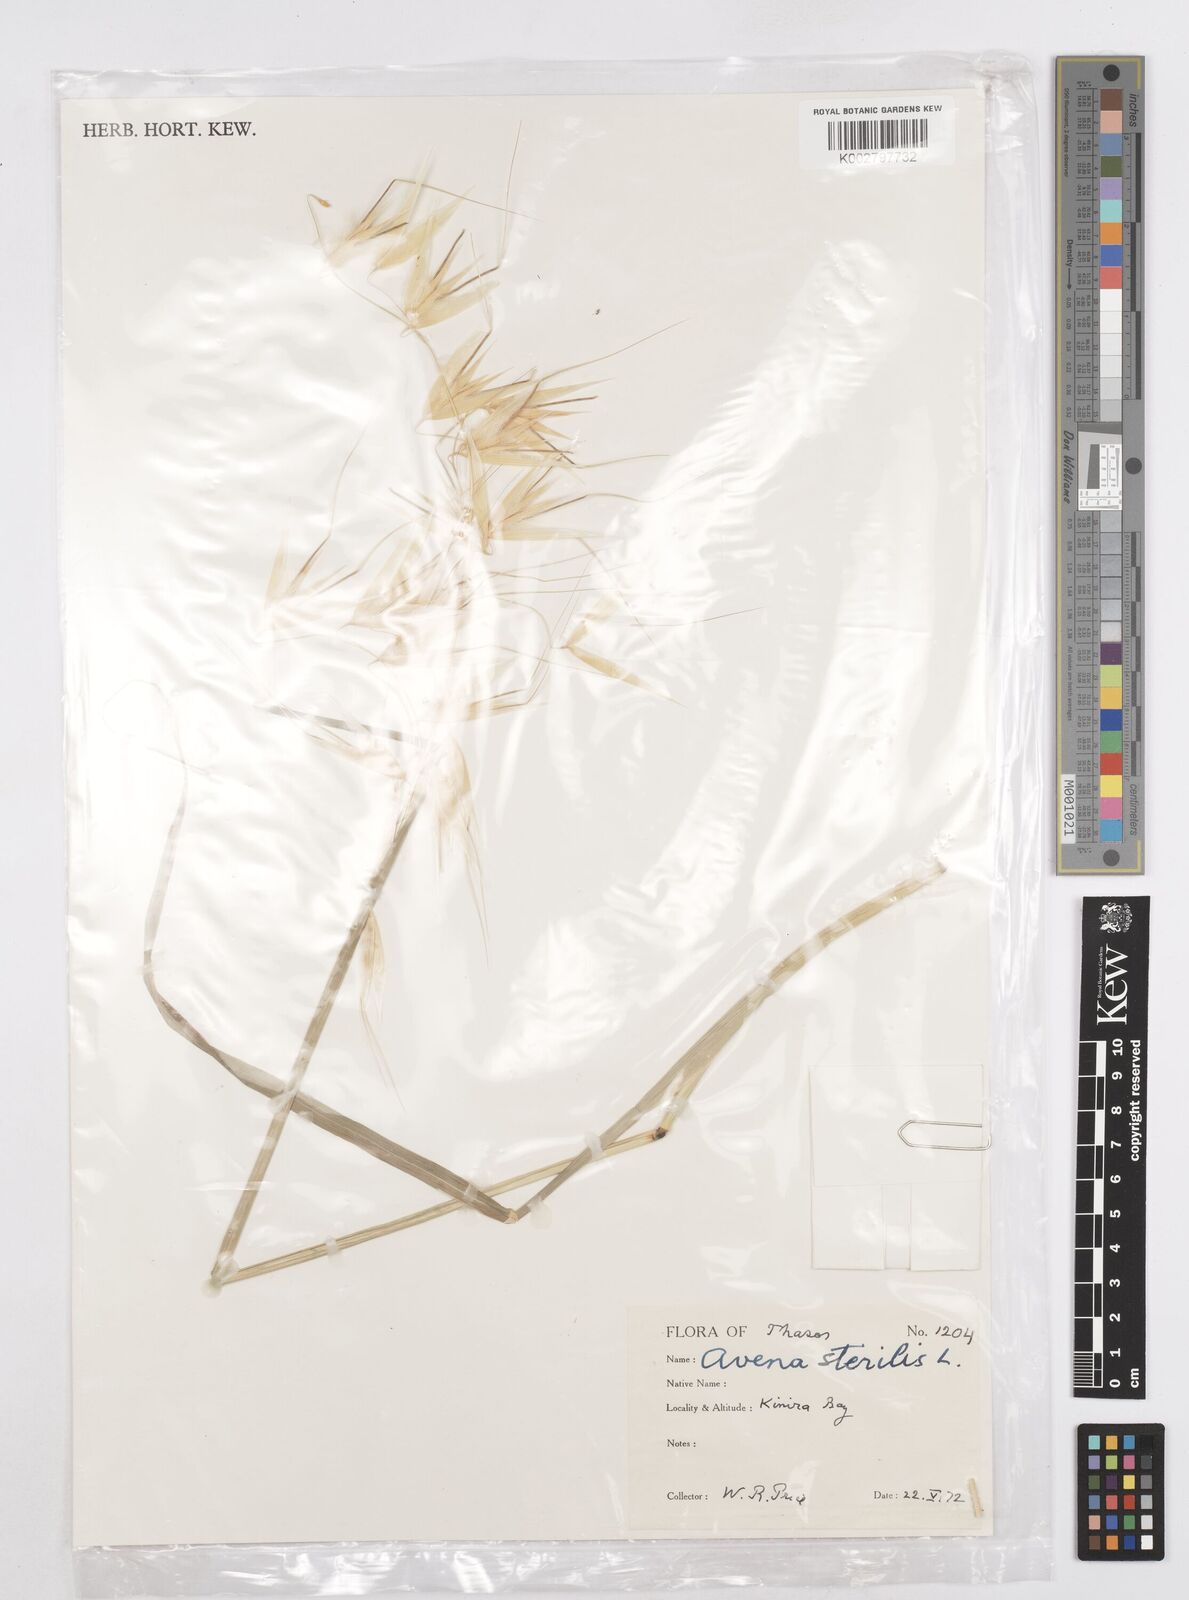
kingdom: Plantae
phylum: Tracheophyta
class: Liliopsida
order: Poales
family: Poaceae
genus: Avena
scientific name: Avena sterilis
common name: Animated oat
